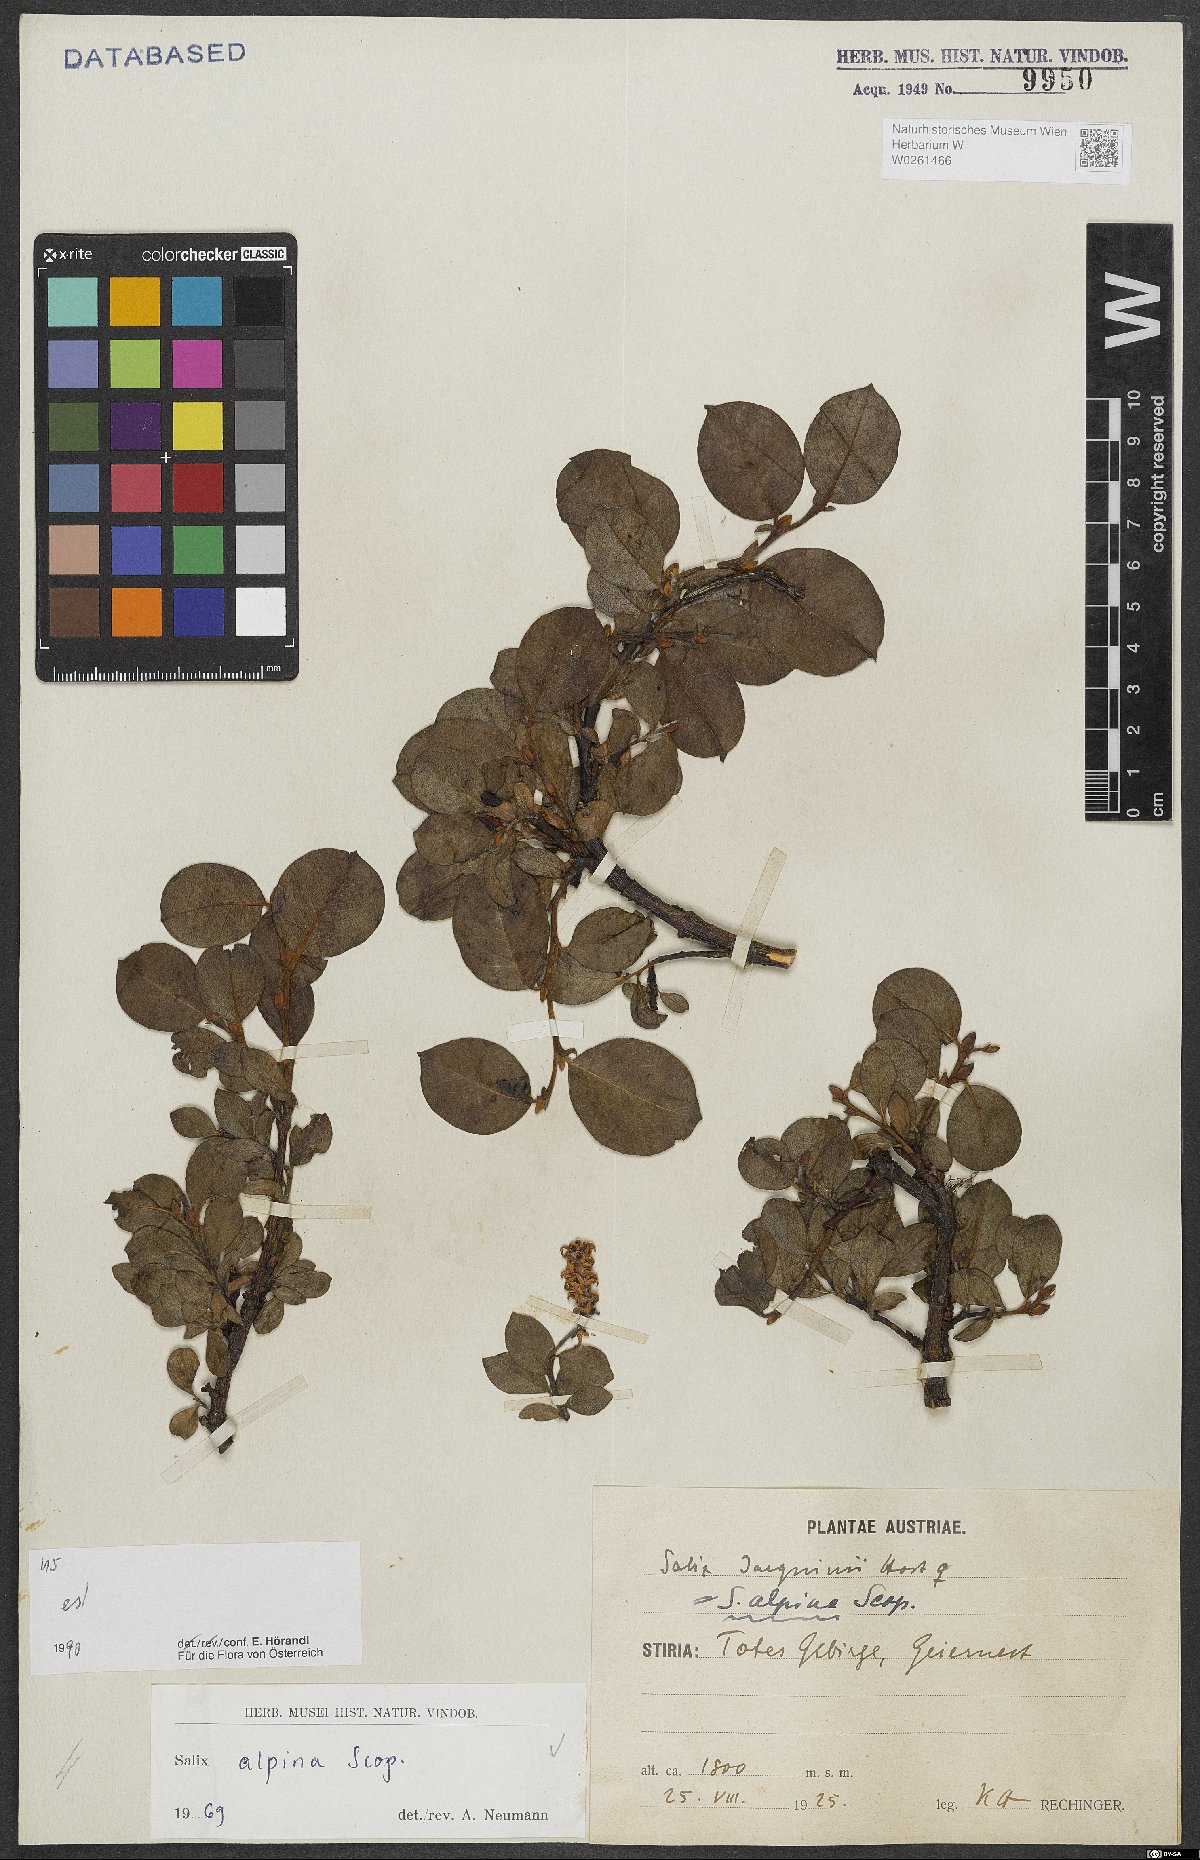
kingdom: Plantae
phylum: Tracheophyta
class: Magnoliopsida
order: Malpighiales
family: Salicaceae
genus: Salix
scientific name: Salix alpina
